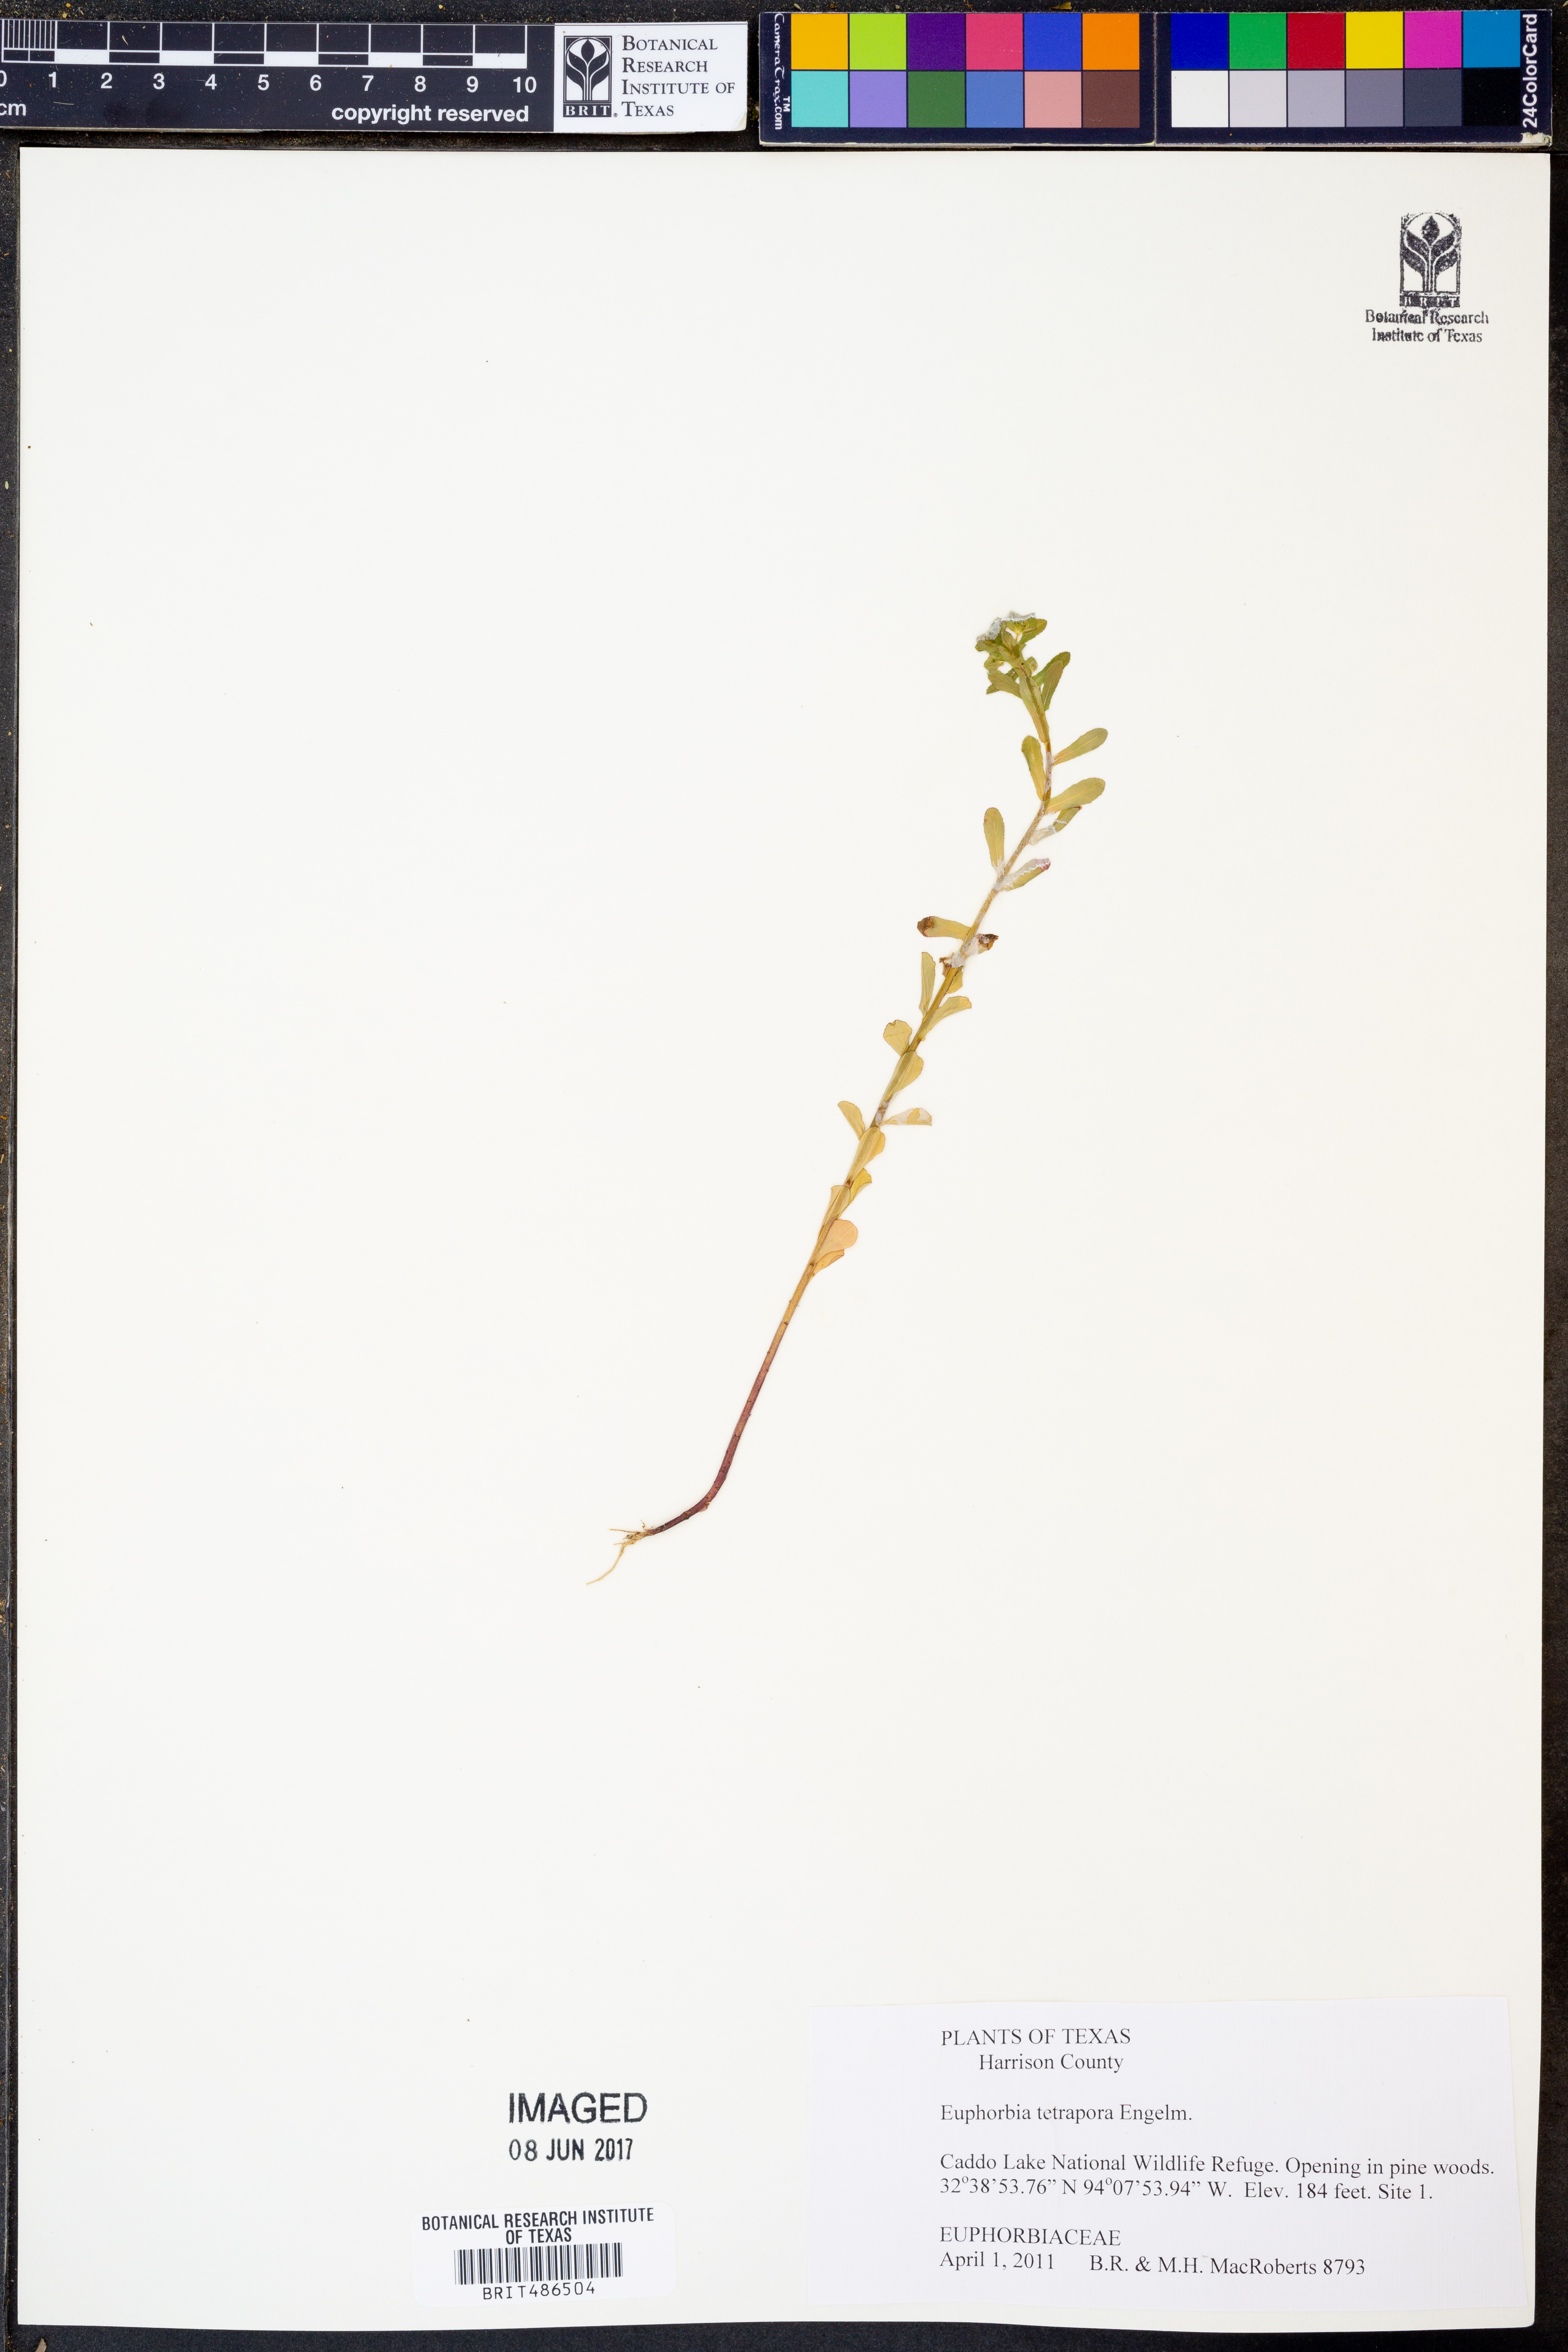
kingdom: Plantae
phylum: Tracheophyta
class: Magnoliopsida
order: Malpighiales
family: Euphorbiaceae
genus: Euphorbia
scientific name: Euphorbia tetrapora
